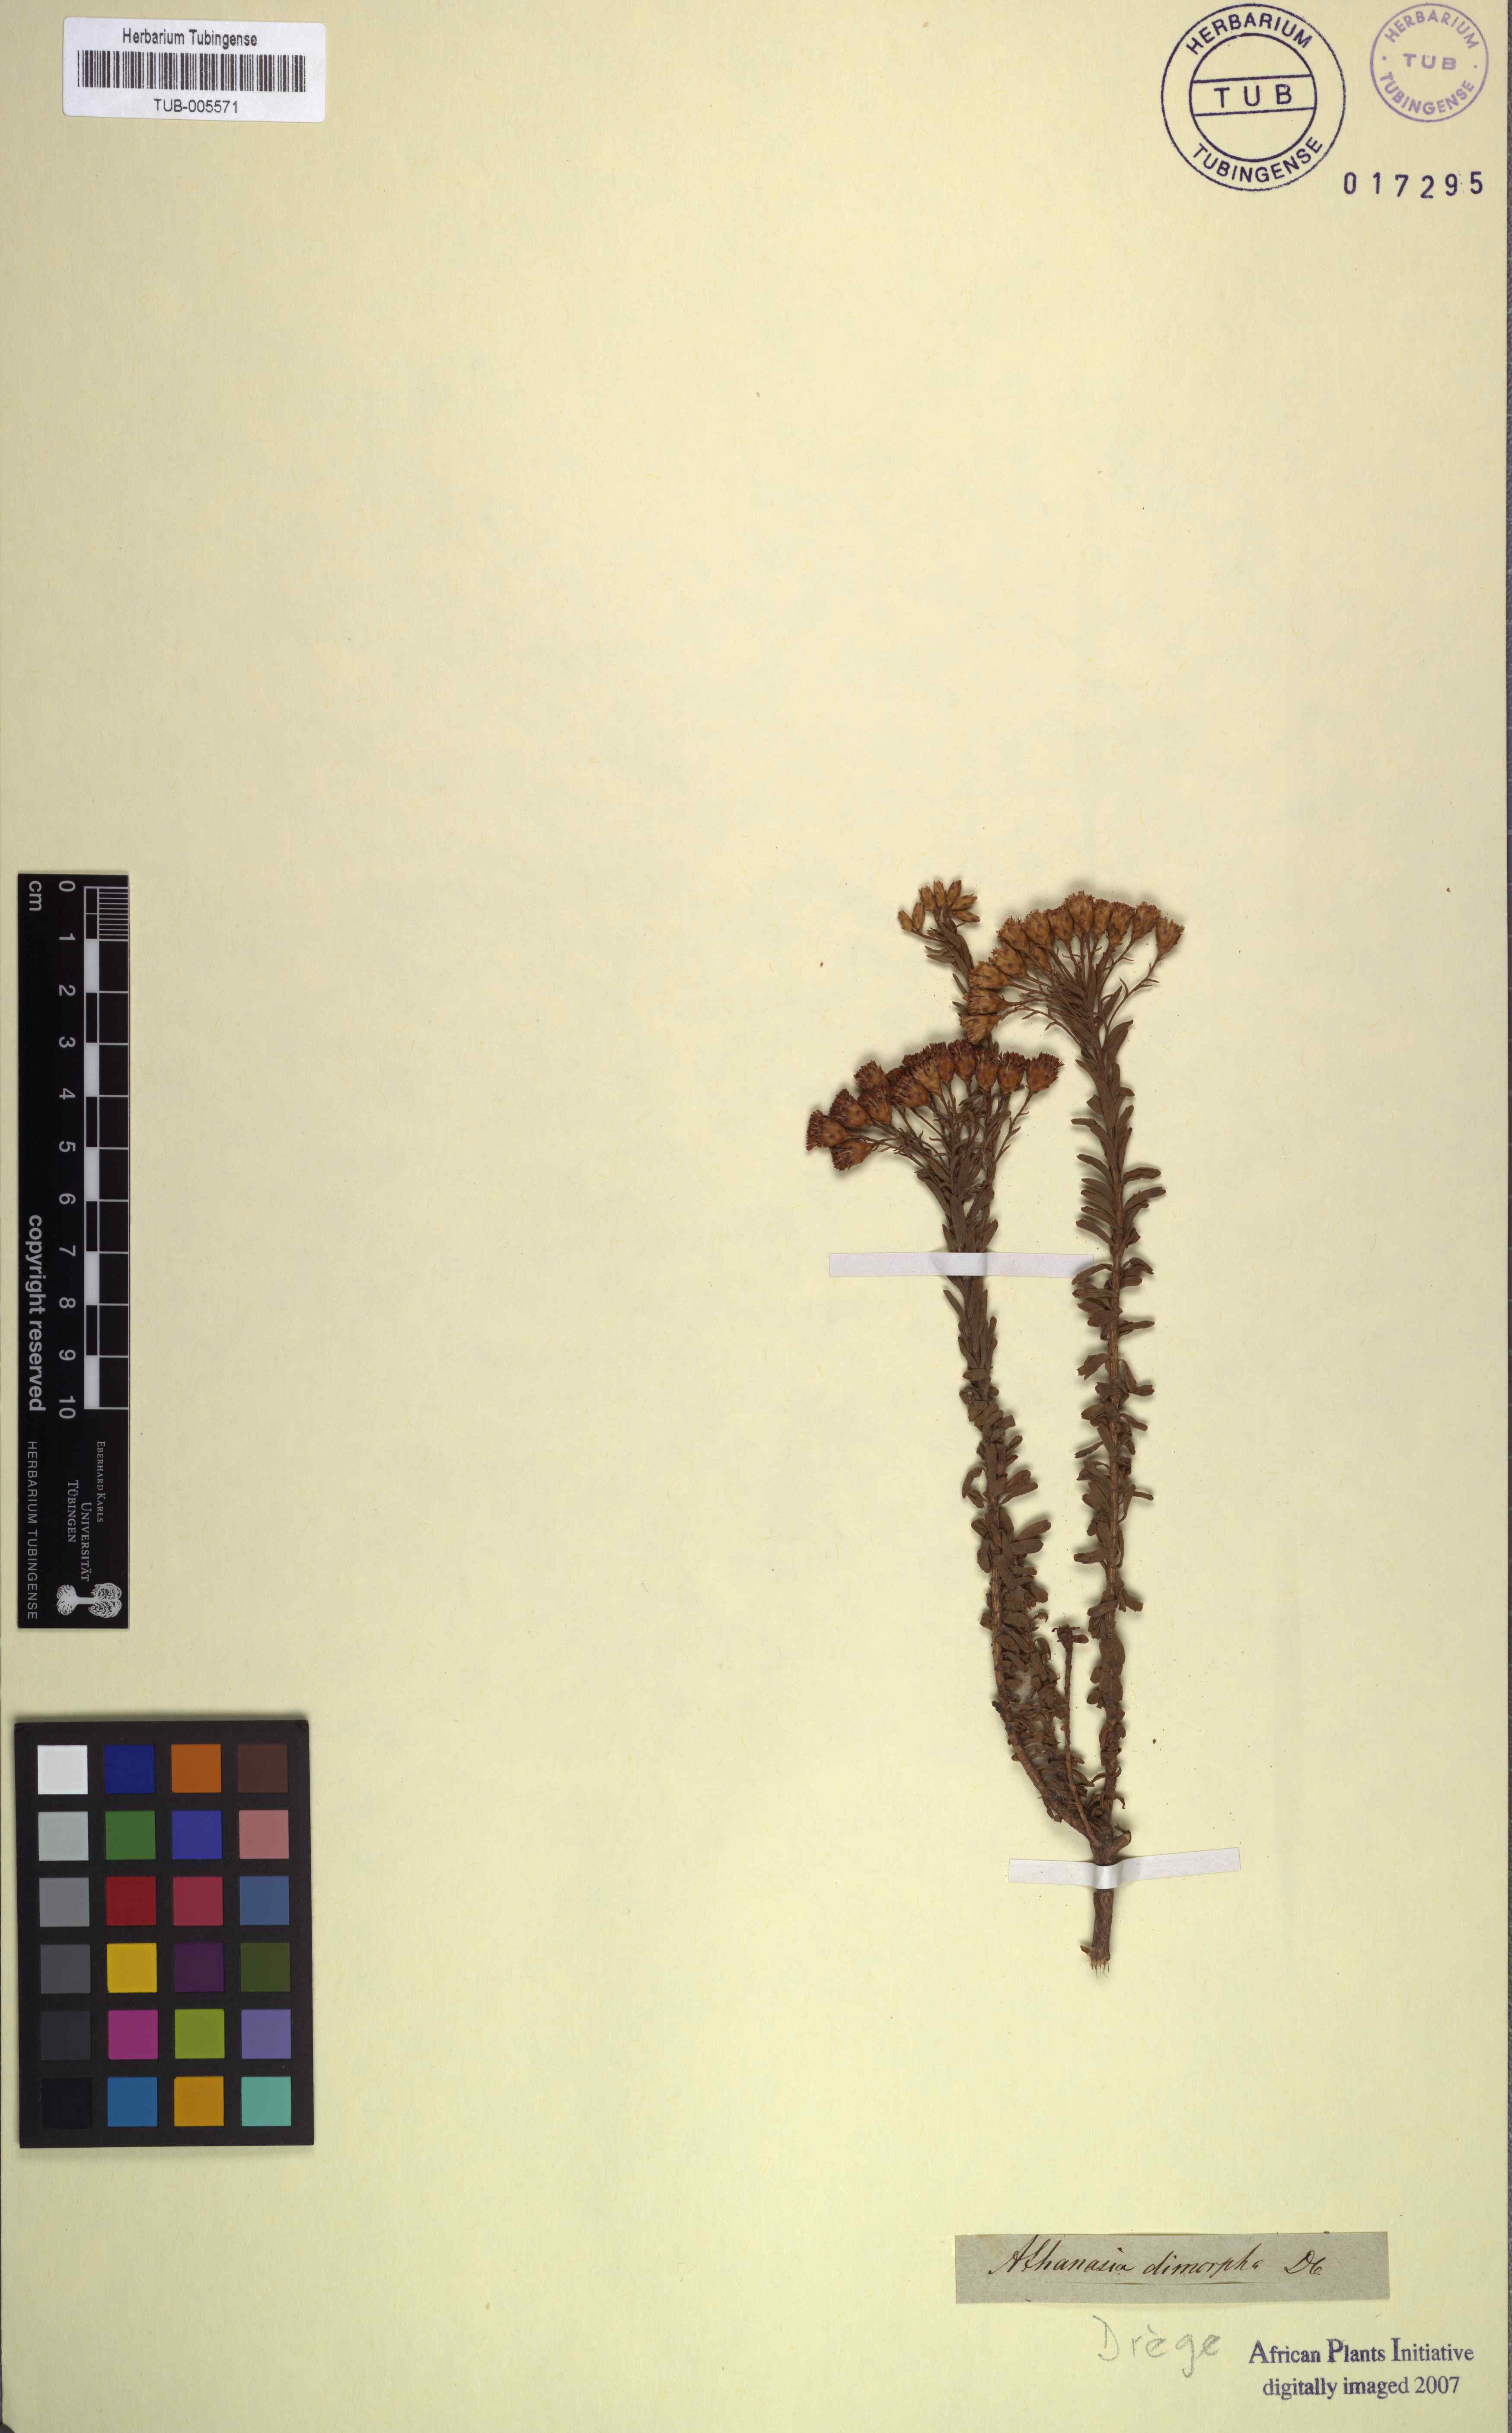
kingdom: Plantae
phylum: Tracheophyta
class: Magnoliopsida
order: Asterales
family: Asteraceae
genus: Athanasia
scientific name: Athanasia quinquedentata
